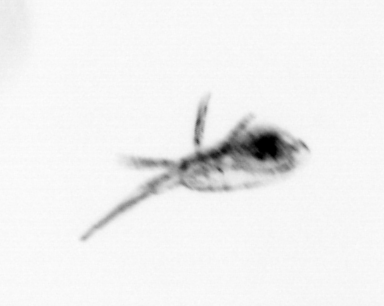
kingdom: Animalia
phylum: Arthropoda
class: Copepoda
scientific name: Copepoda
